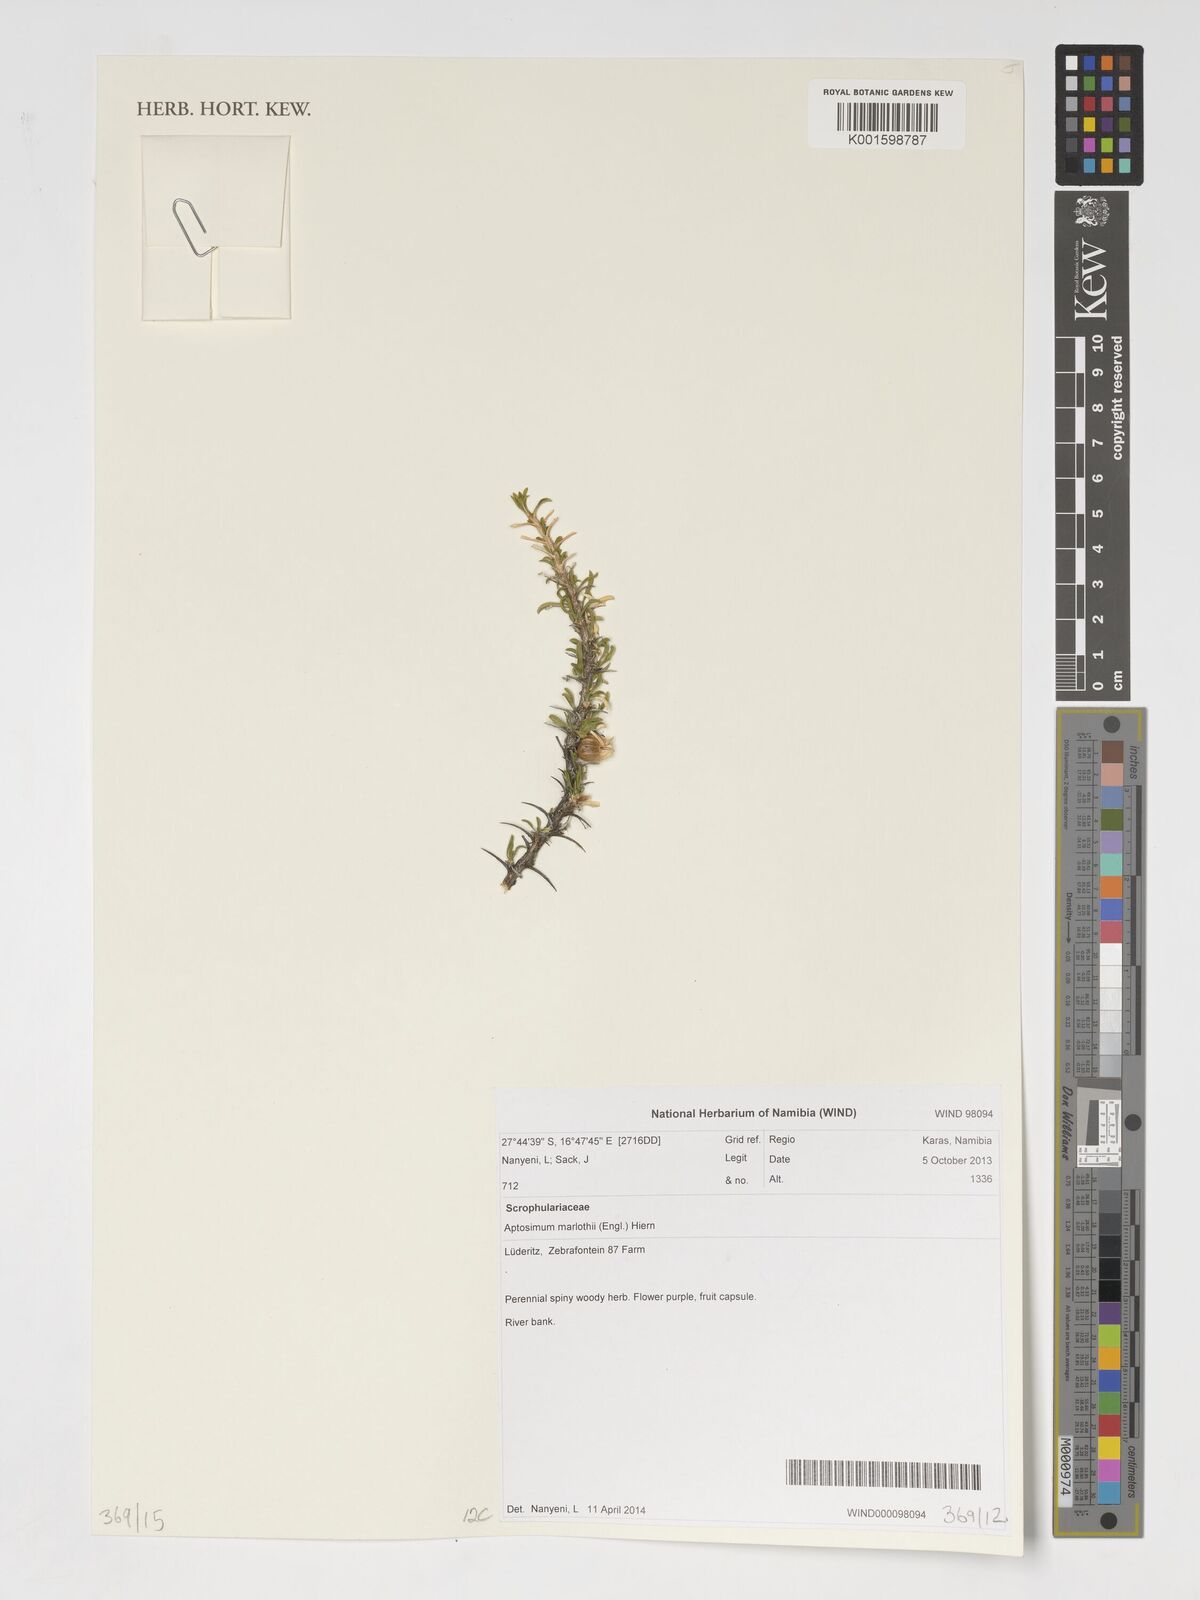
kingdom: Plantae
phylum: Tracheophyta
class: Magnoliopsida
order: Lamiales
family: Scrophulariaceae
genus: Aptosimum
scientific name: Aptosimum marlothii
